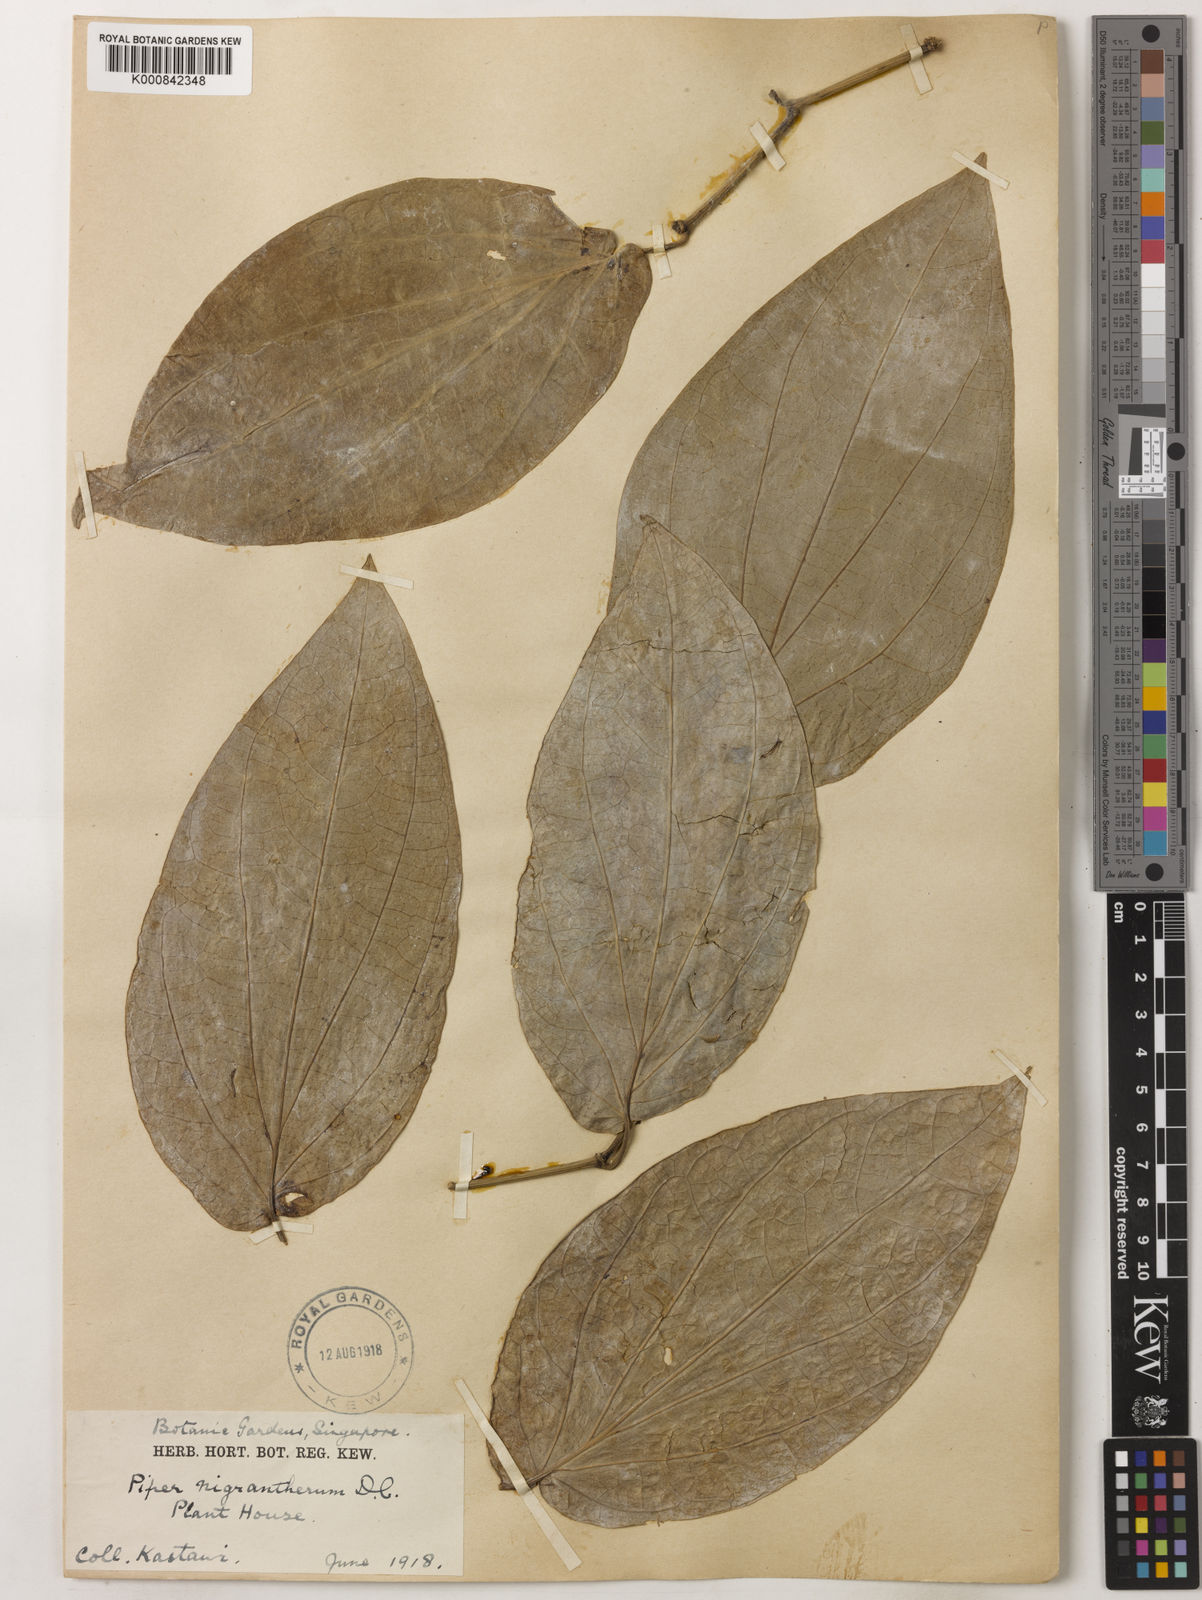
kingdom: Plantae
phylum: Tracheophyta
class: Magnoliopsida
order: Piperales
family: Piperaceae
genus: Piper
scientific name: Piper argyrites
